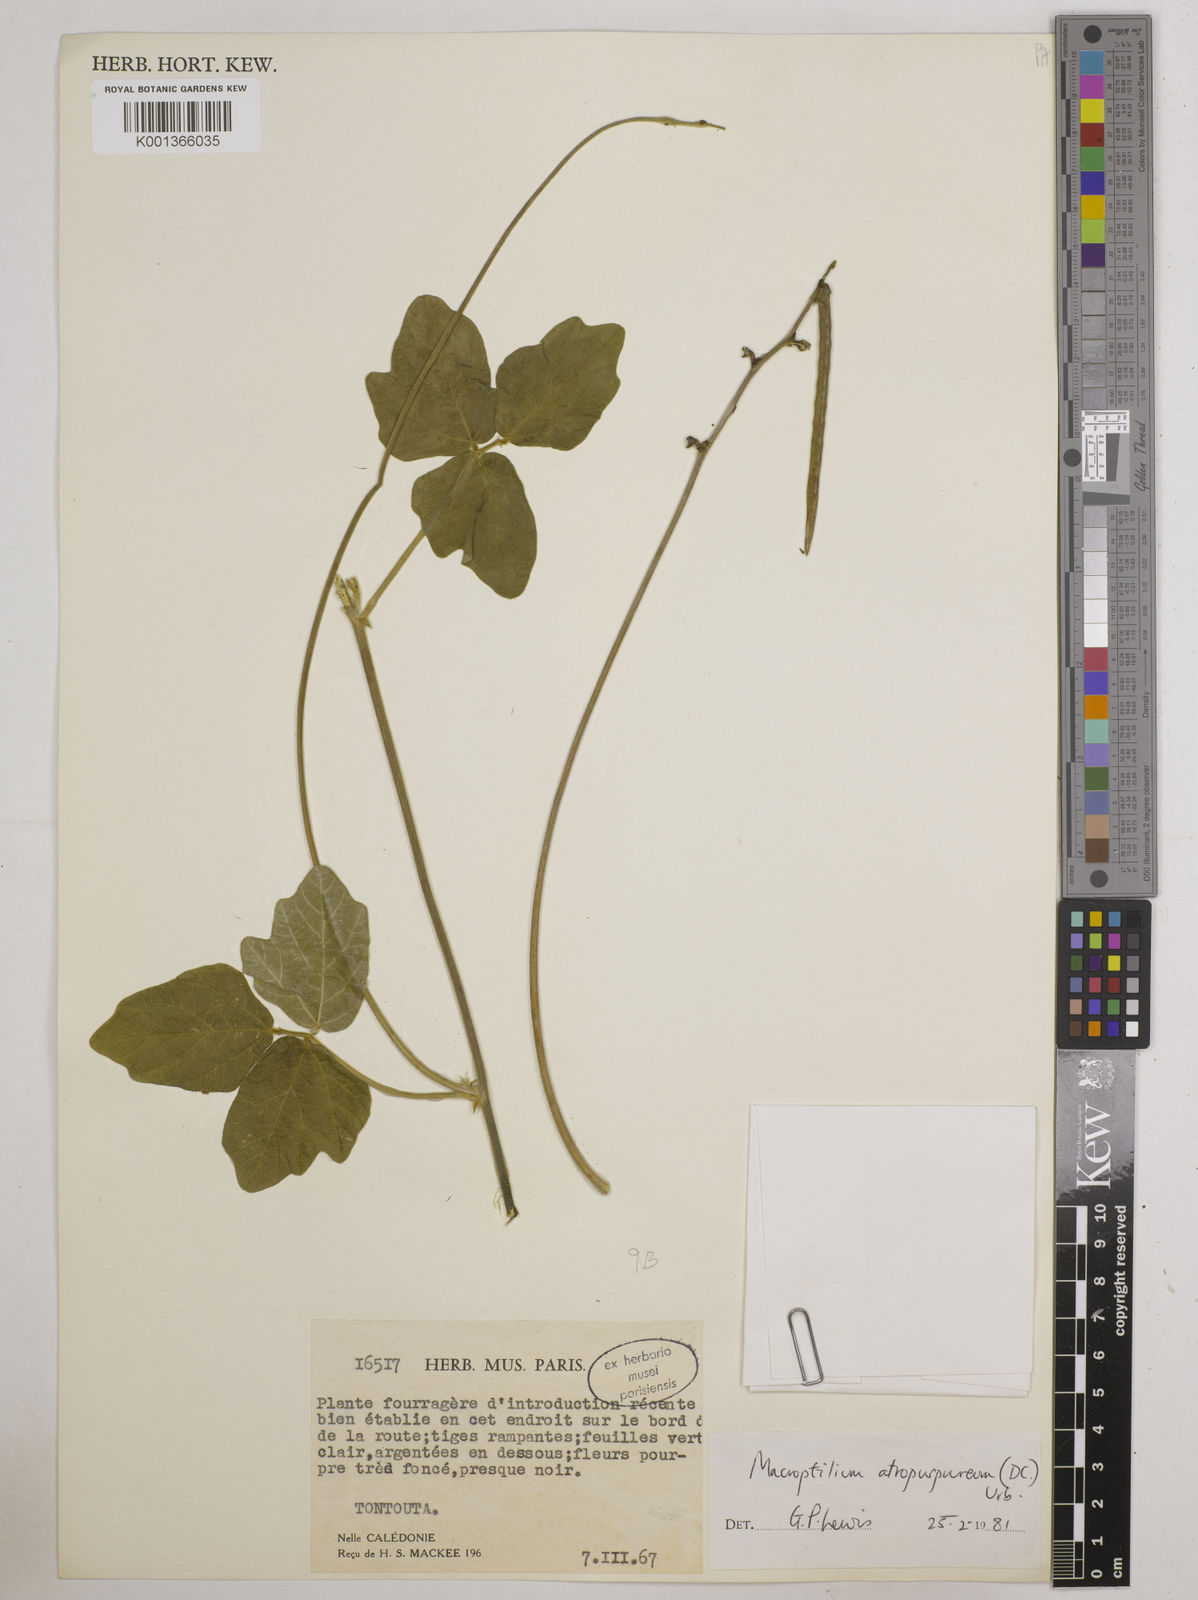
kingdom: Plantae
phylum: Tracheophyta
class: Magnoliopsida
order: Fabales
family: Fabaceae
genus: Macroptilium
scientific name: Macroptilium atropurpureum
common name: Purple bushbean
